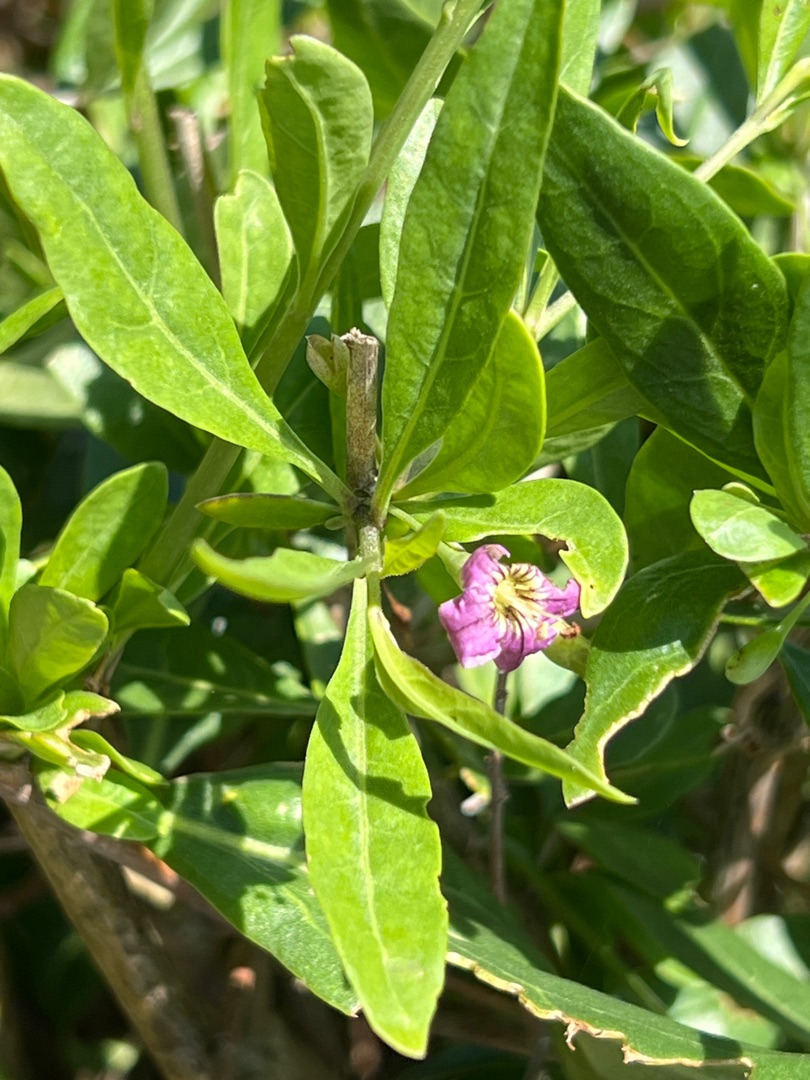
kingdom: Plantae
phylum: Tracheophyta
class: Magnoliopsida
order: Solanales
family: Solanaceae
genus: Lycium
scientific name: Lycium barbarum
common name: Bukketorn
